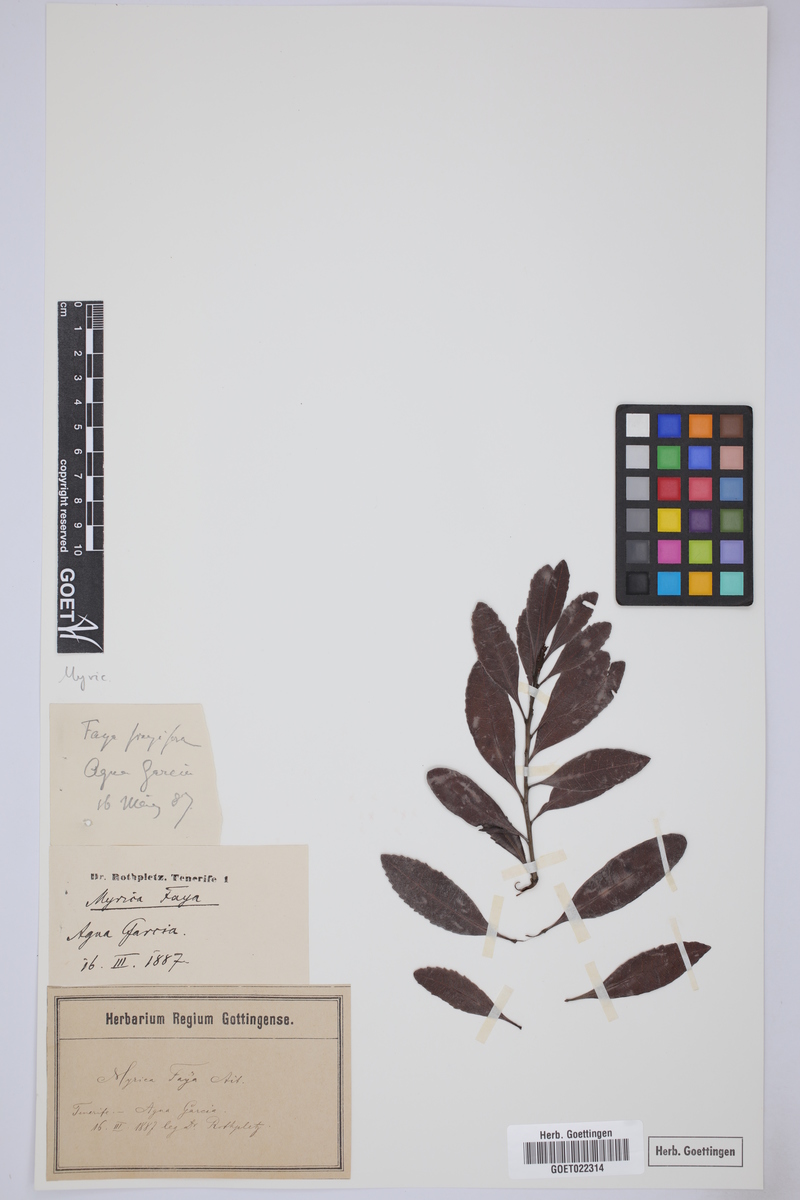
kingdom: Plantae
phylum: Tracheophyta
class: Magnoliopsida
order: Fagales
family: Myricaceae
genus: Morella
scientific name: Morella faya
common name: Firetree
